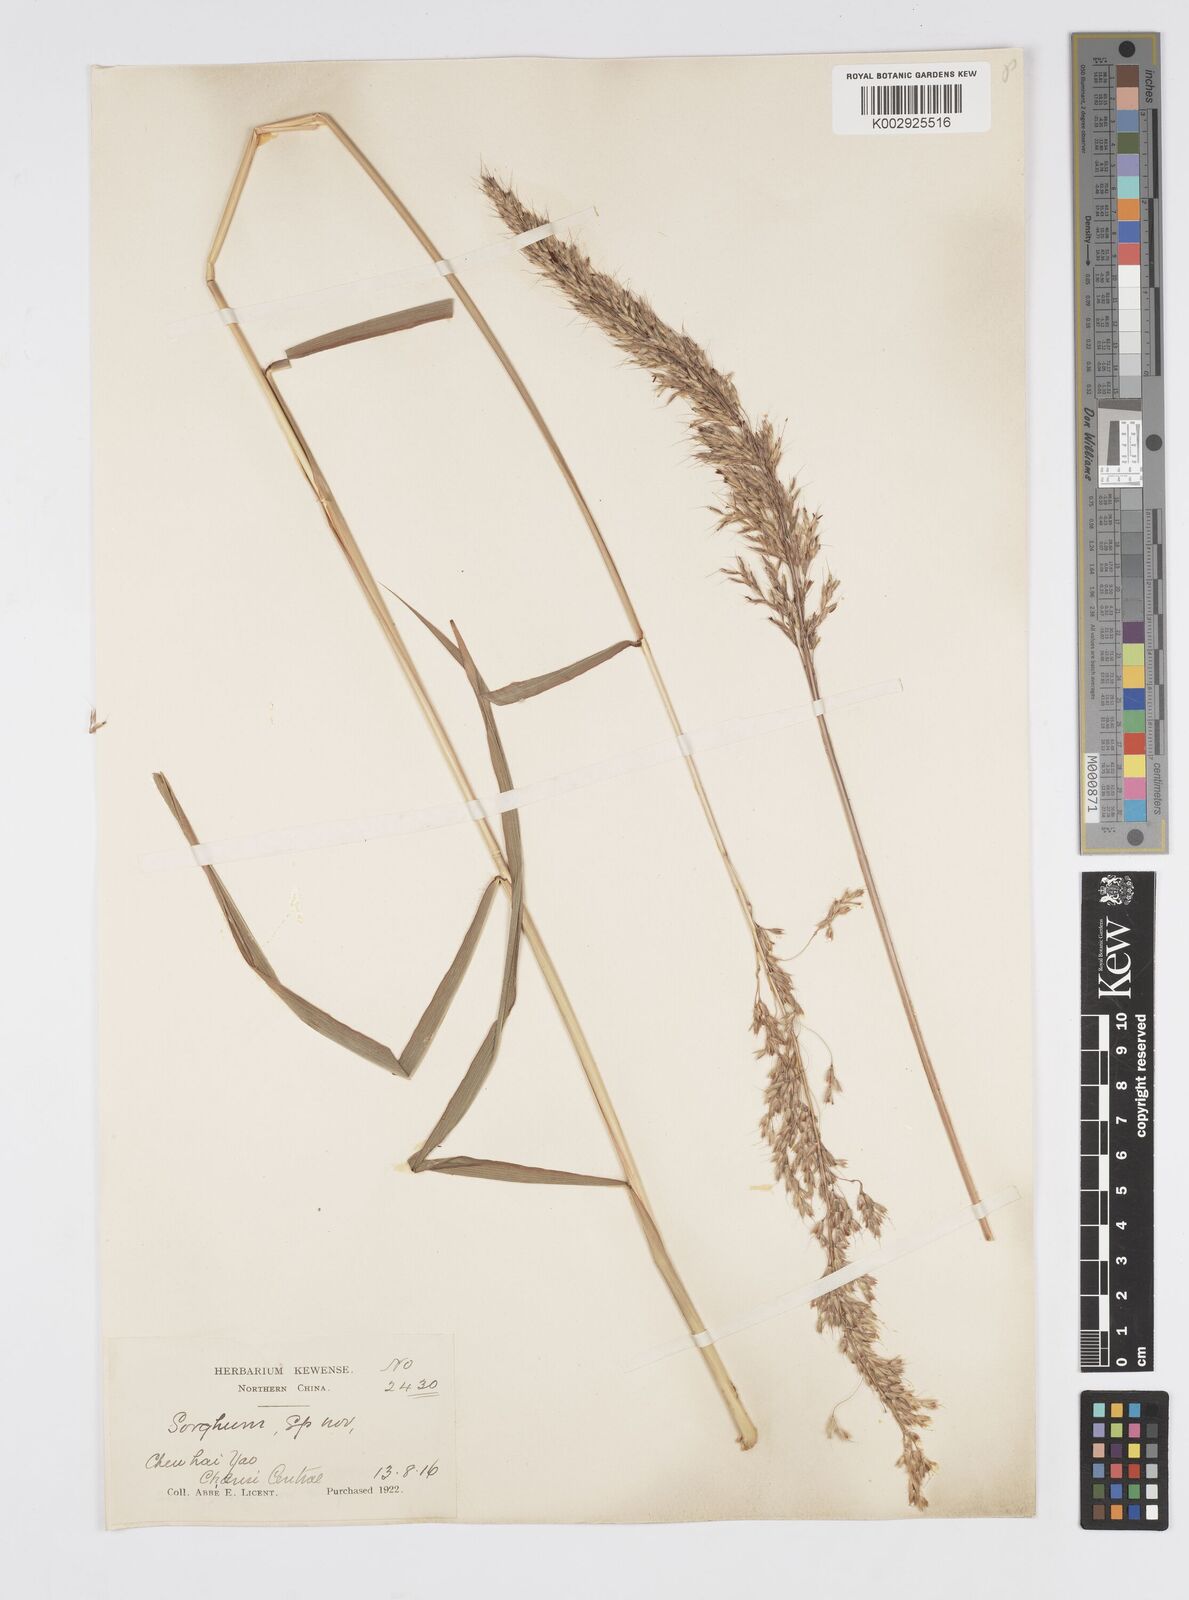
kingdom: Plantae
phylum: Tracheophyta
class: Liliopsida
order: Poales
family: Poaceae
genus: Spodiopogon
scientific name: Spodiopogon sibiricus
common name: Siberian graybeard
